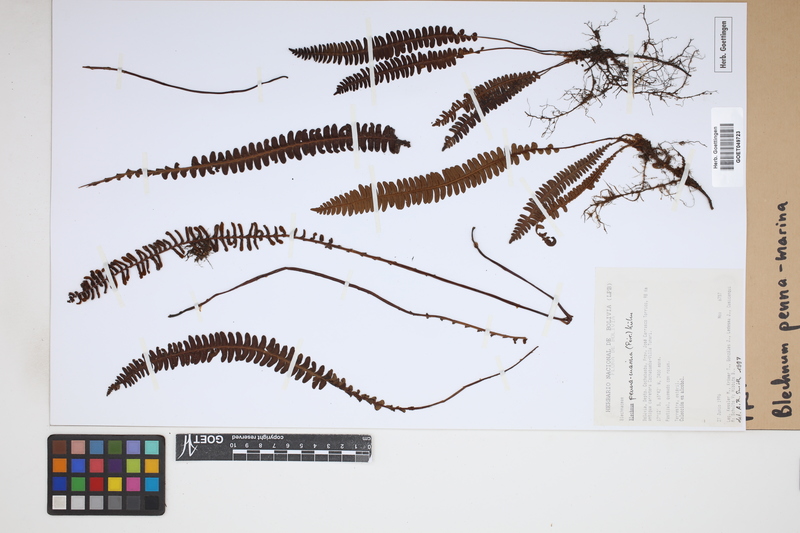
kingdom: Plantae
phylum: Tracheophyta
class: Polypodiopsida
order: Polypodiales
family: Blechnaceae
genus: Austroblechnum
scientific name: Austroblechnum penna-marina
